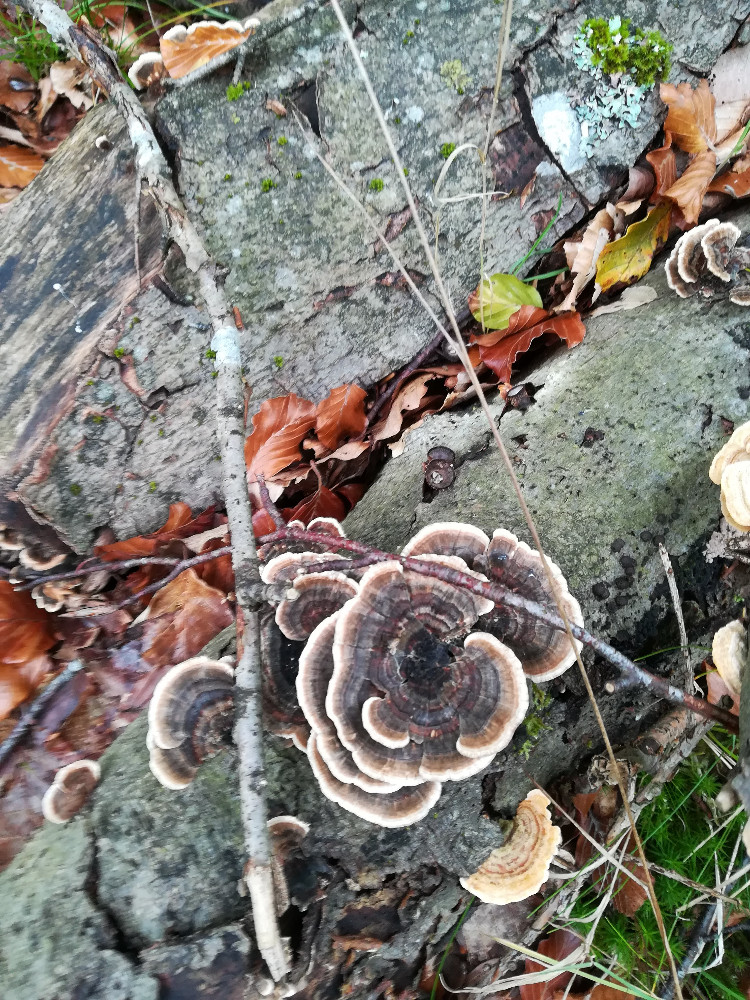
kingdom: Fungi
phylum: Basidiomycota
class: Agaricomycetes
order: Polyporales
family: Polyporaceae
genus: Trametes
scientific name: Trametes versicolor
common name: broget læderporesvamp
